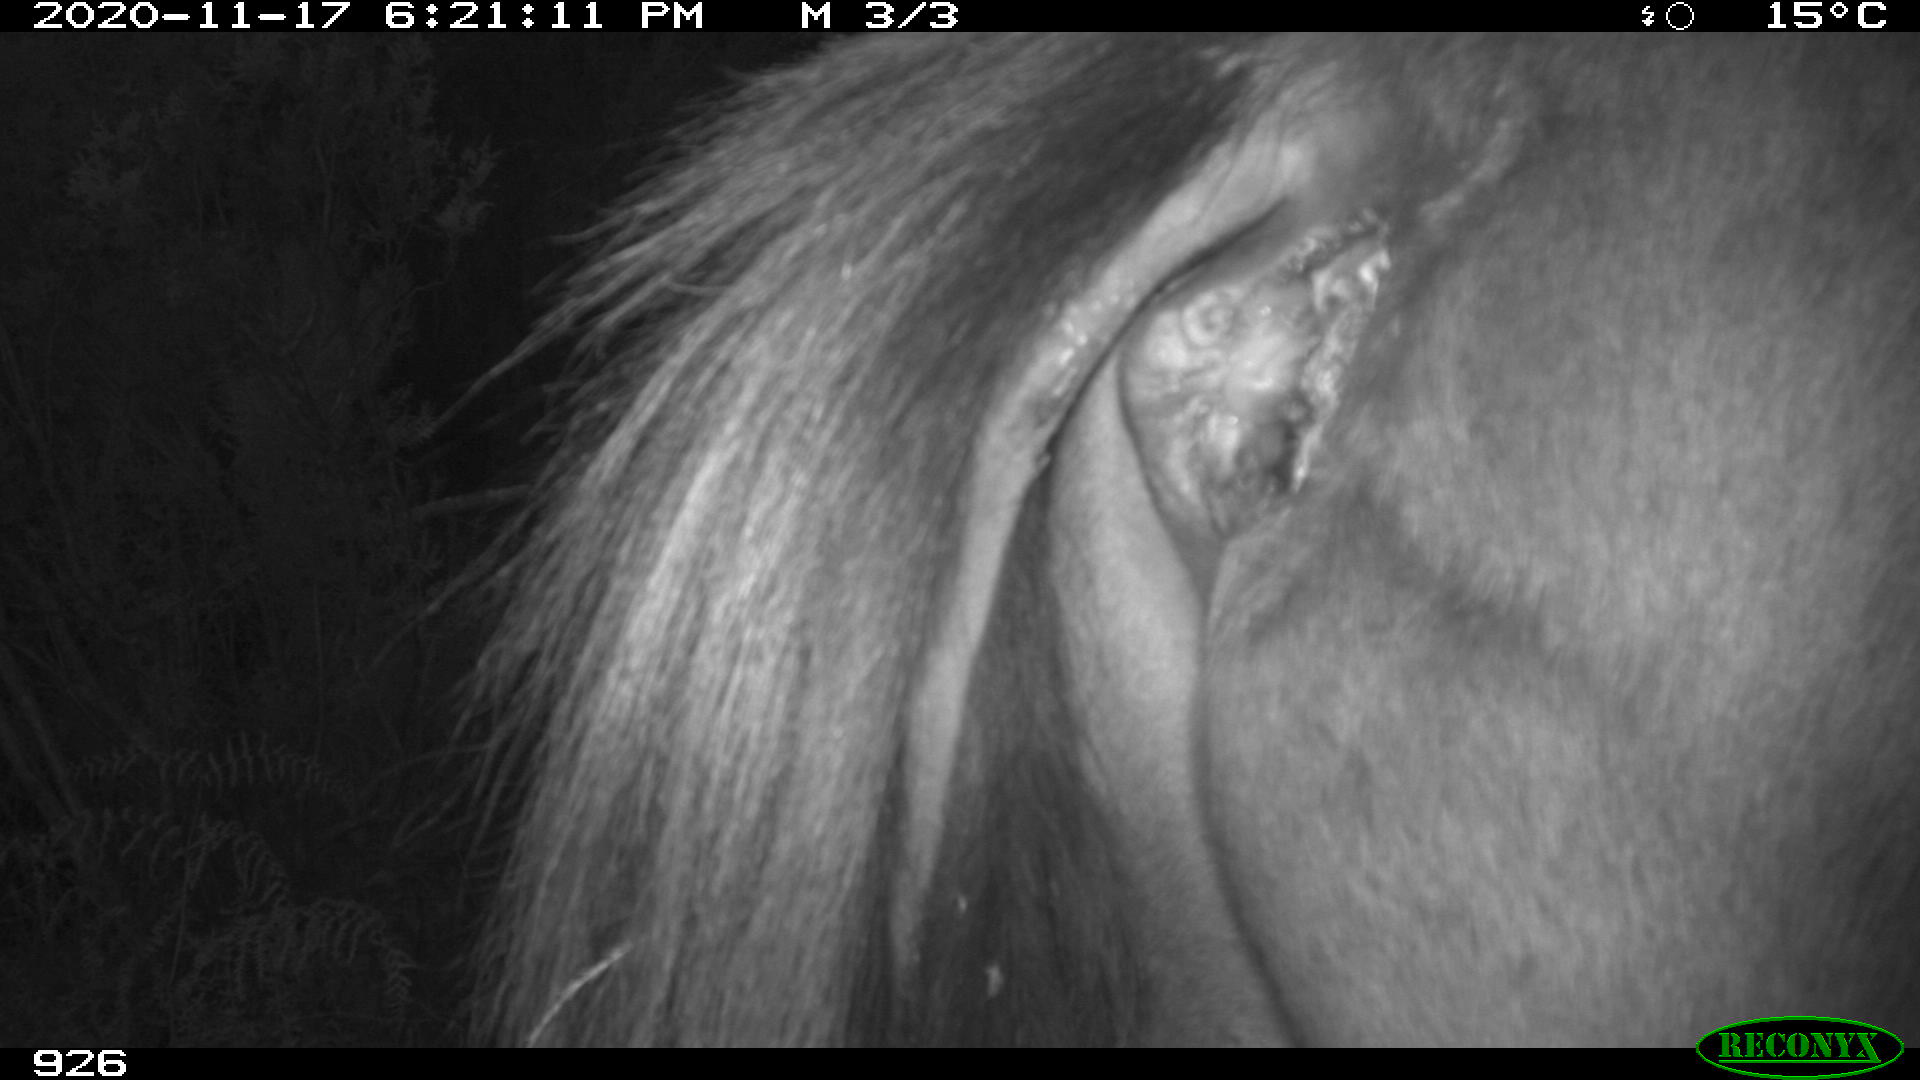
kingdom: Animalia
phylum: Chordata
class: Mammalia
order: Perissodactyla
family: Equidae
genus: Equus
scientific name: Equus caballus
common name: Horse
